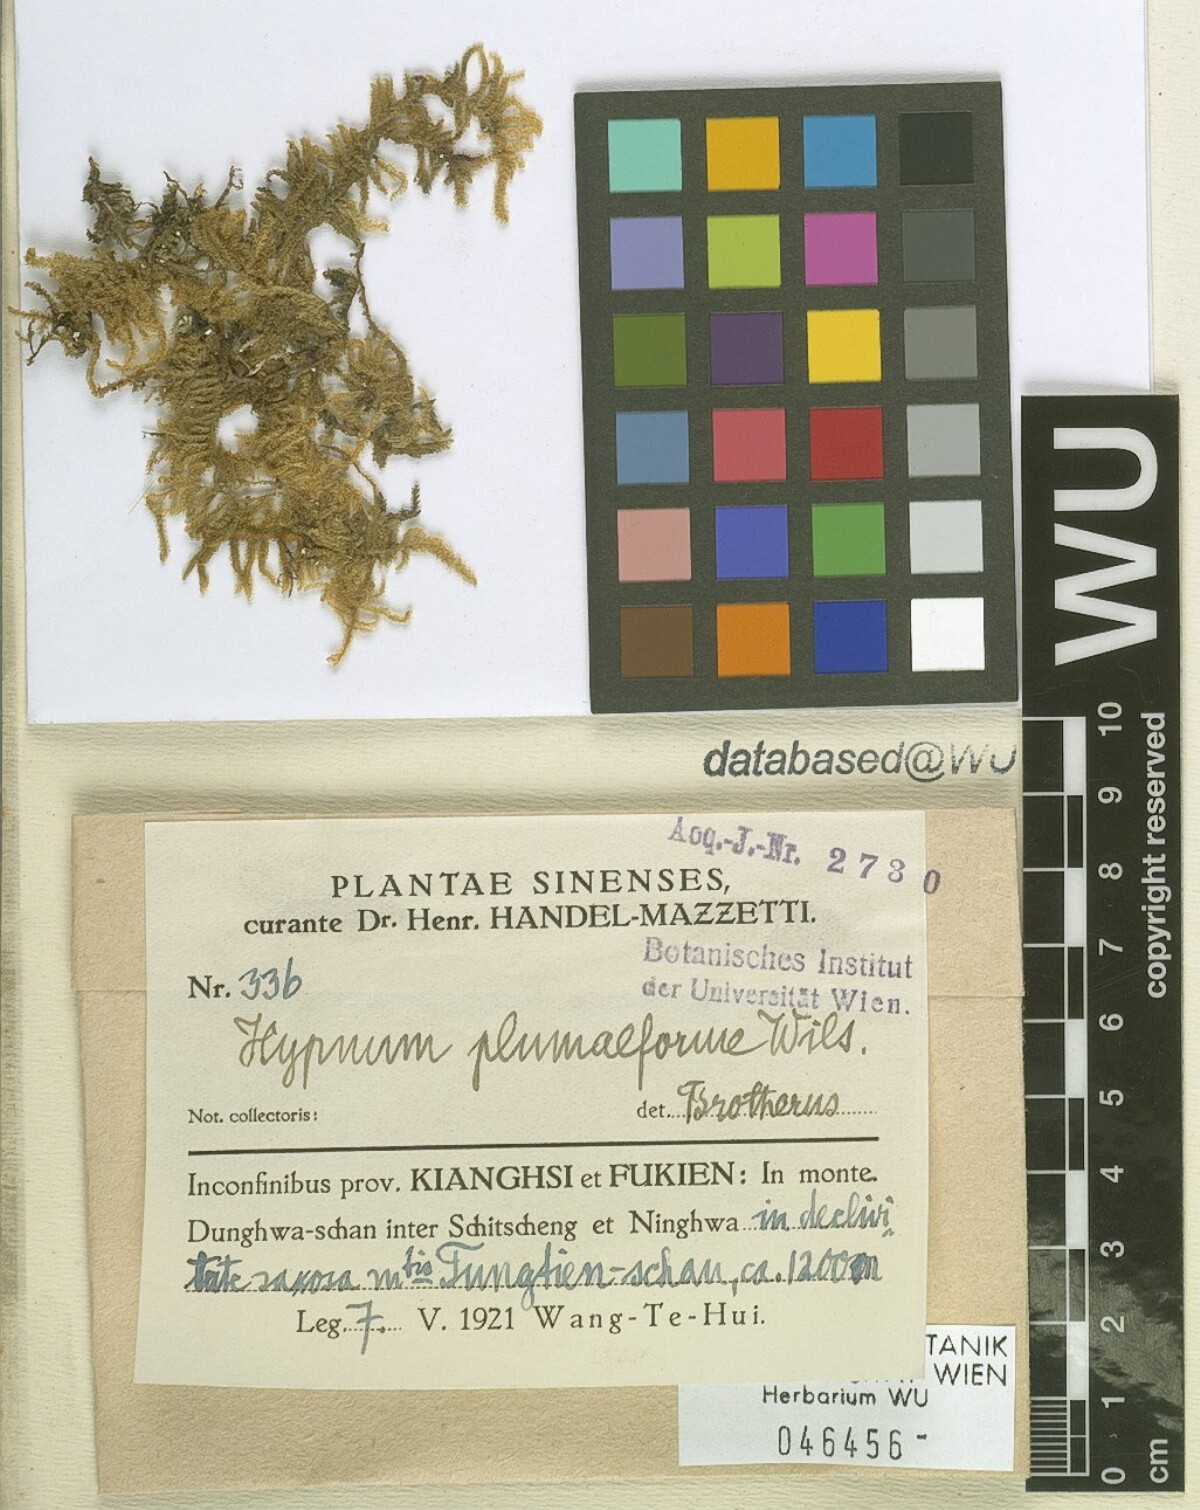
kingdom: Plantae
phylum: Bryophyta
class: Bryopsida
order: Hypnales
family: Hypnaceae
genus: Hypnum
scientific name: Hypnum plumaeforme
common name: Cypress-leaved plaitmoss
